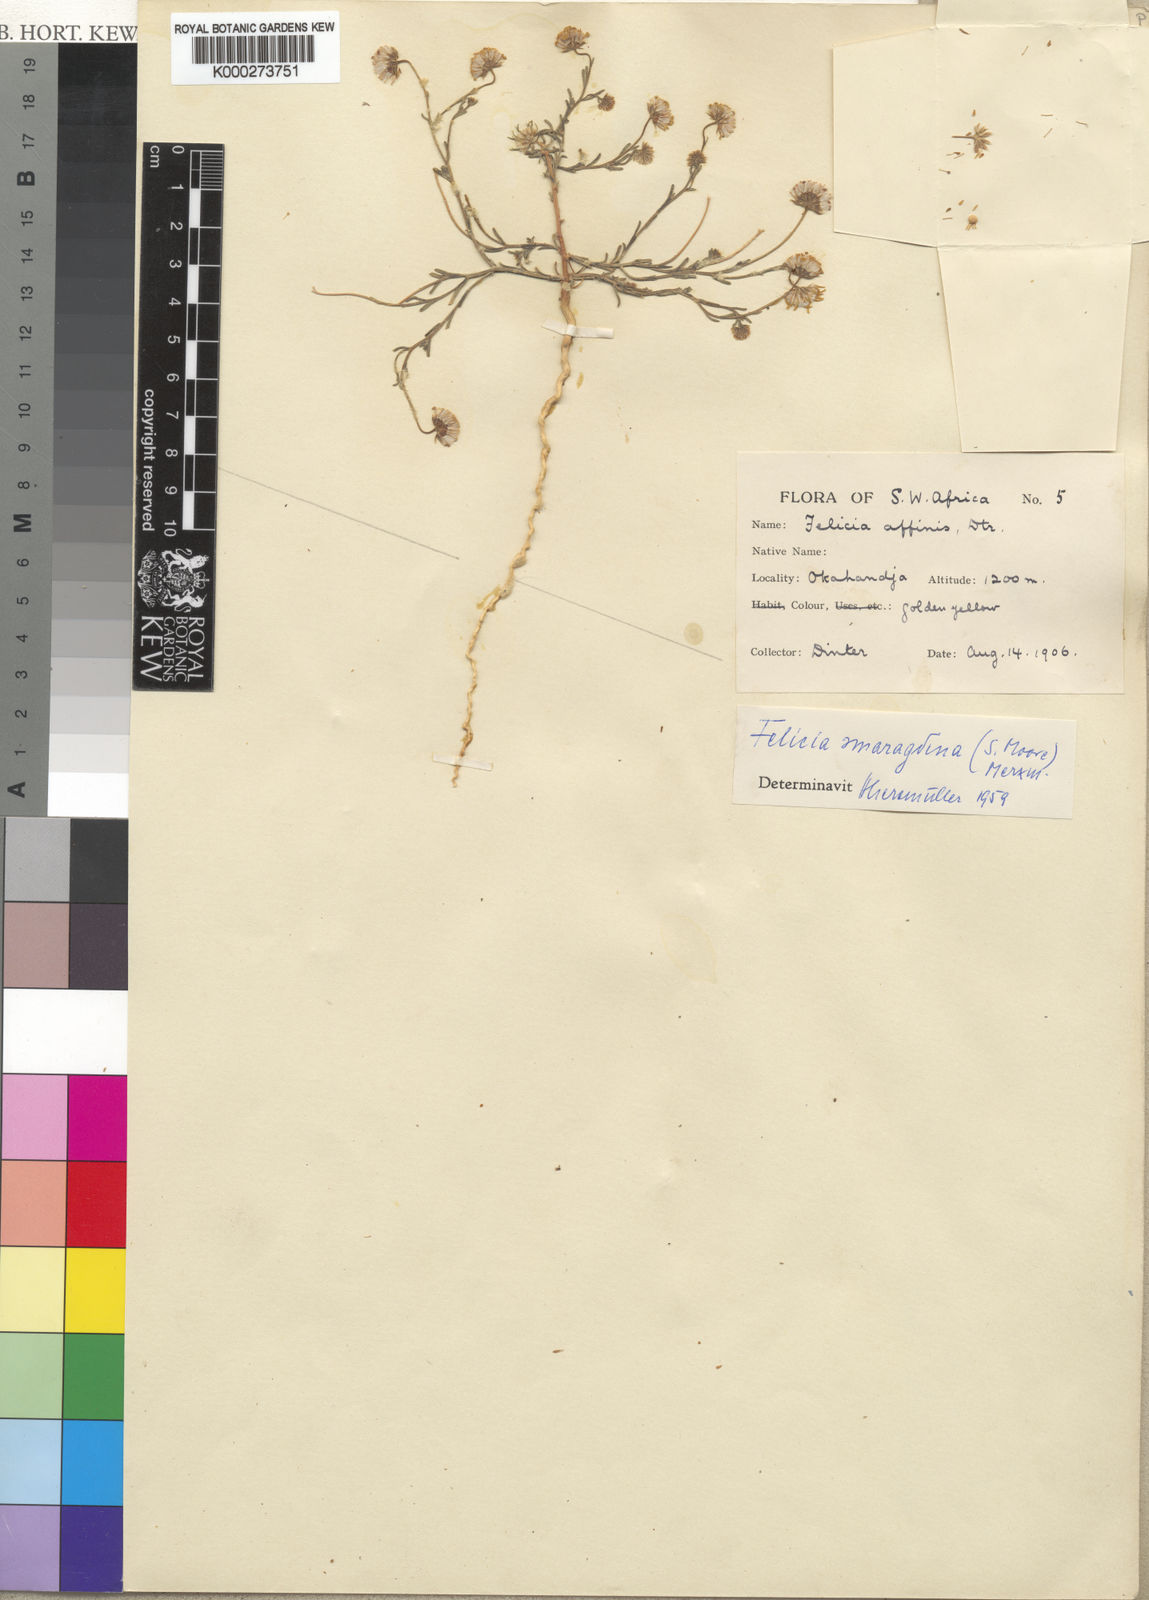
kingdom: Plantae
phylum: Tracheophyta
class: Magnoliopsida
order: Asterales
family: Asteraceae
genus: Felicia
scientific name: Felicia smaragdina
